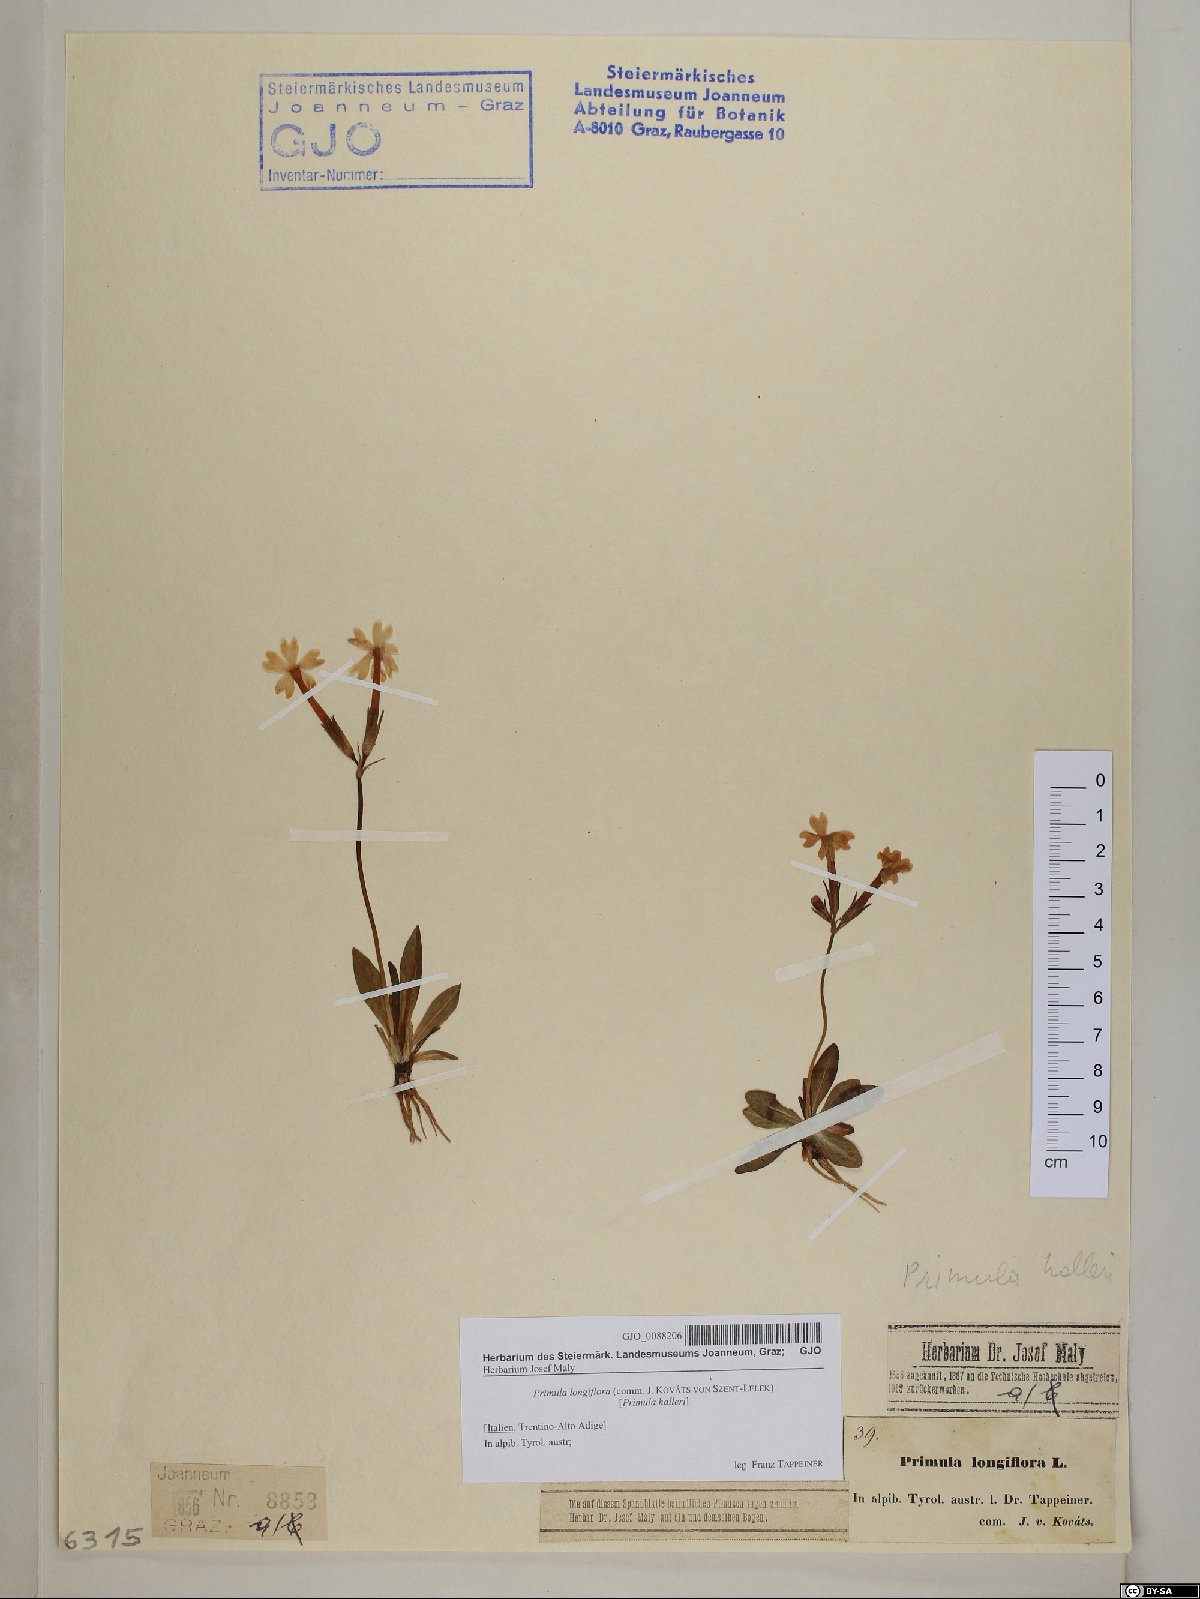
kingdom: Plantae
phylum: Tracheophyta
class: Magnoliopsida
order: Ericales
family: Primulaceae
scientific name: Primulaceae
